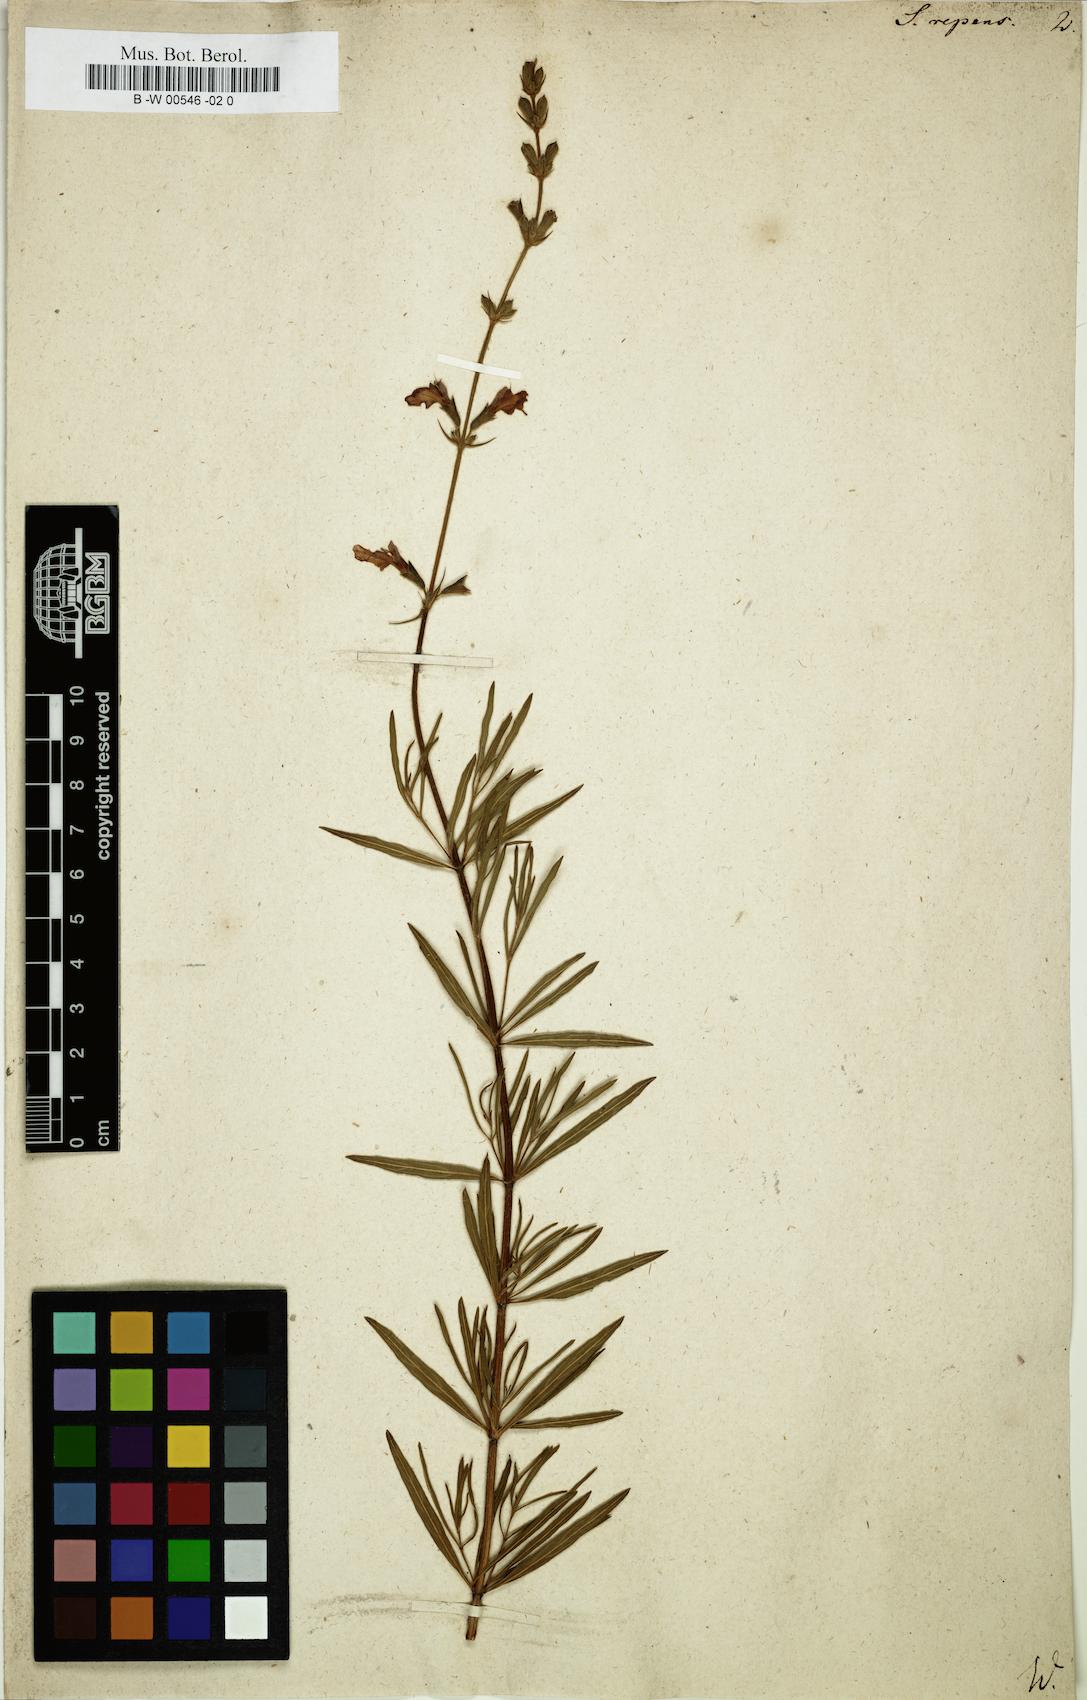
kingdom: Plantae
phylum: Tracheophyta
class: Magnoliopsida
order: Lamiales
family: Lamiaceae
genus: Salvia
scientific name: Salvia repens
